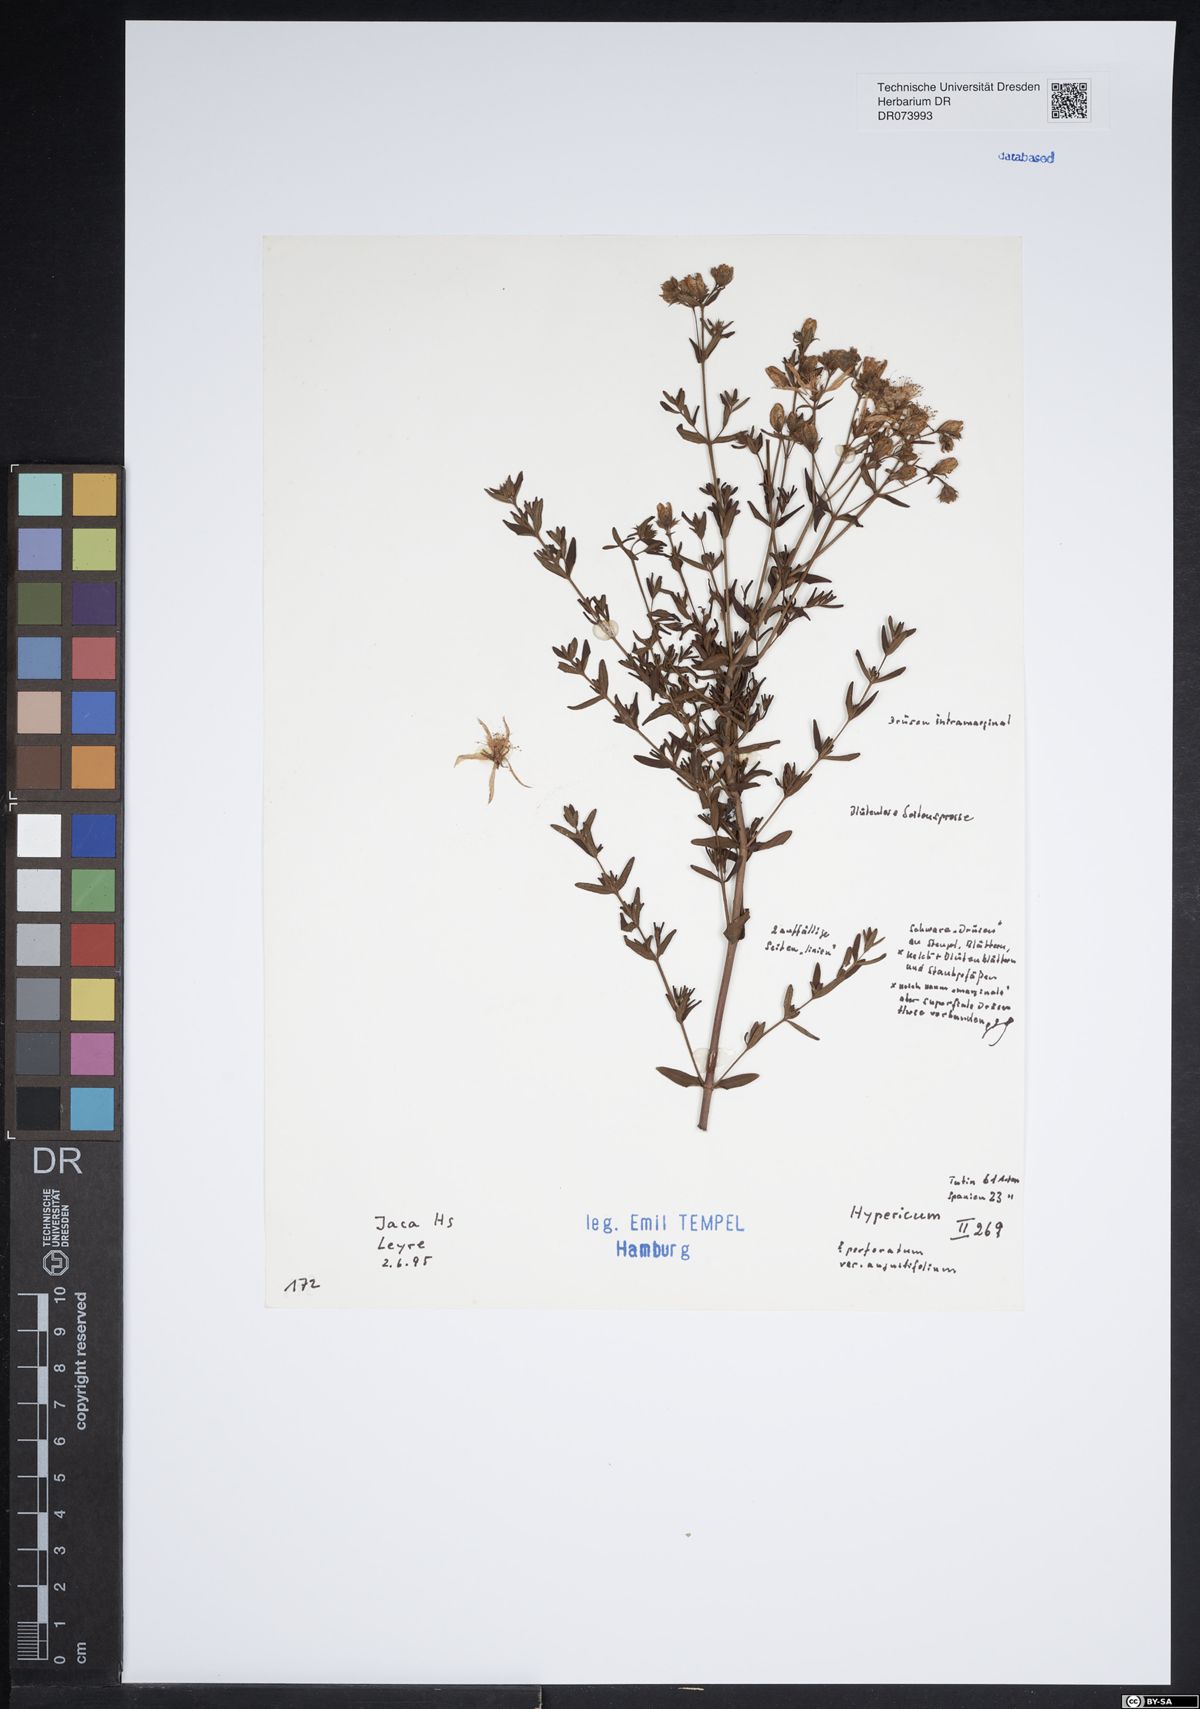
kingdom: Plantae
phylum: Tracheophyta
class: Magnoliopsida
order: Malpighiales
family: Hypericaceae
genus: Hypericum
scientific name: Hypericum perforatum
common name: Common st. johnswort
